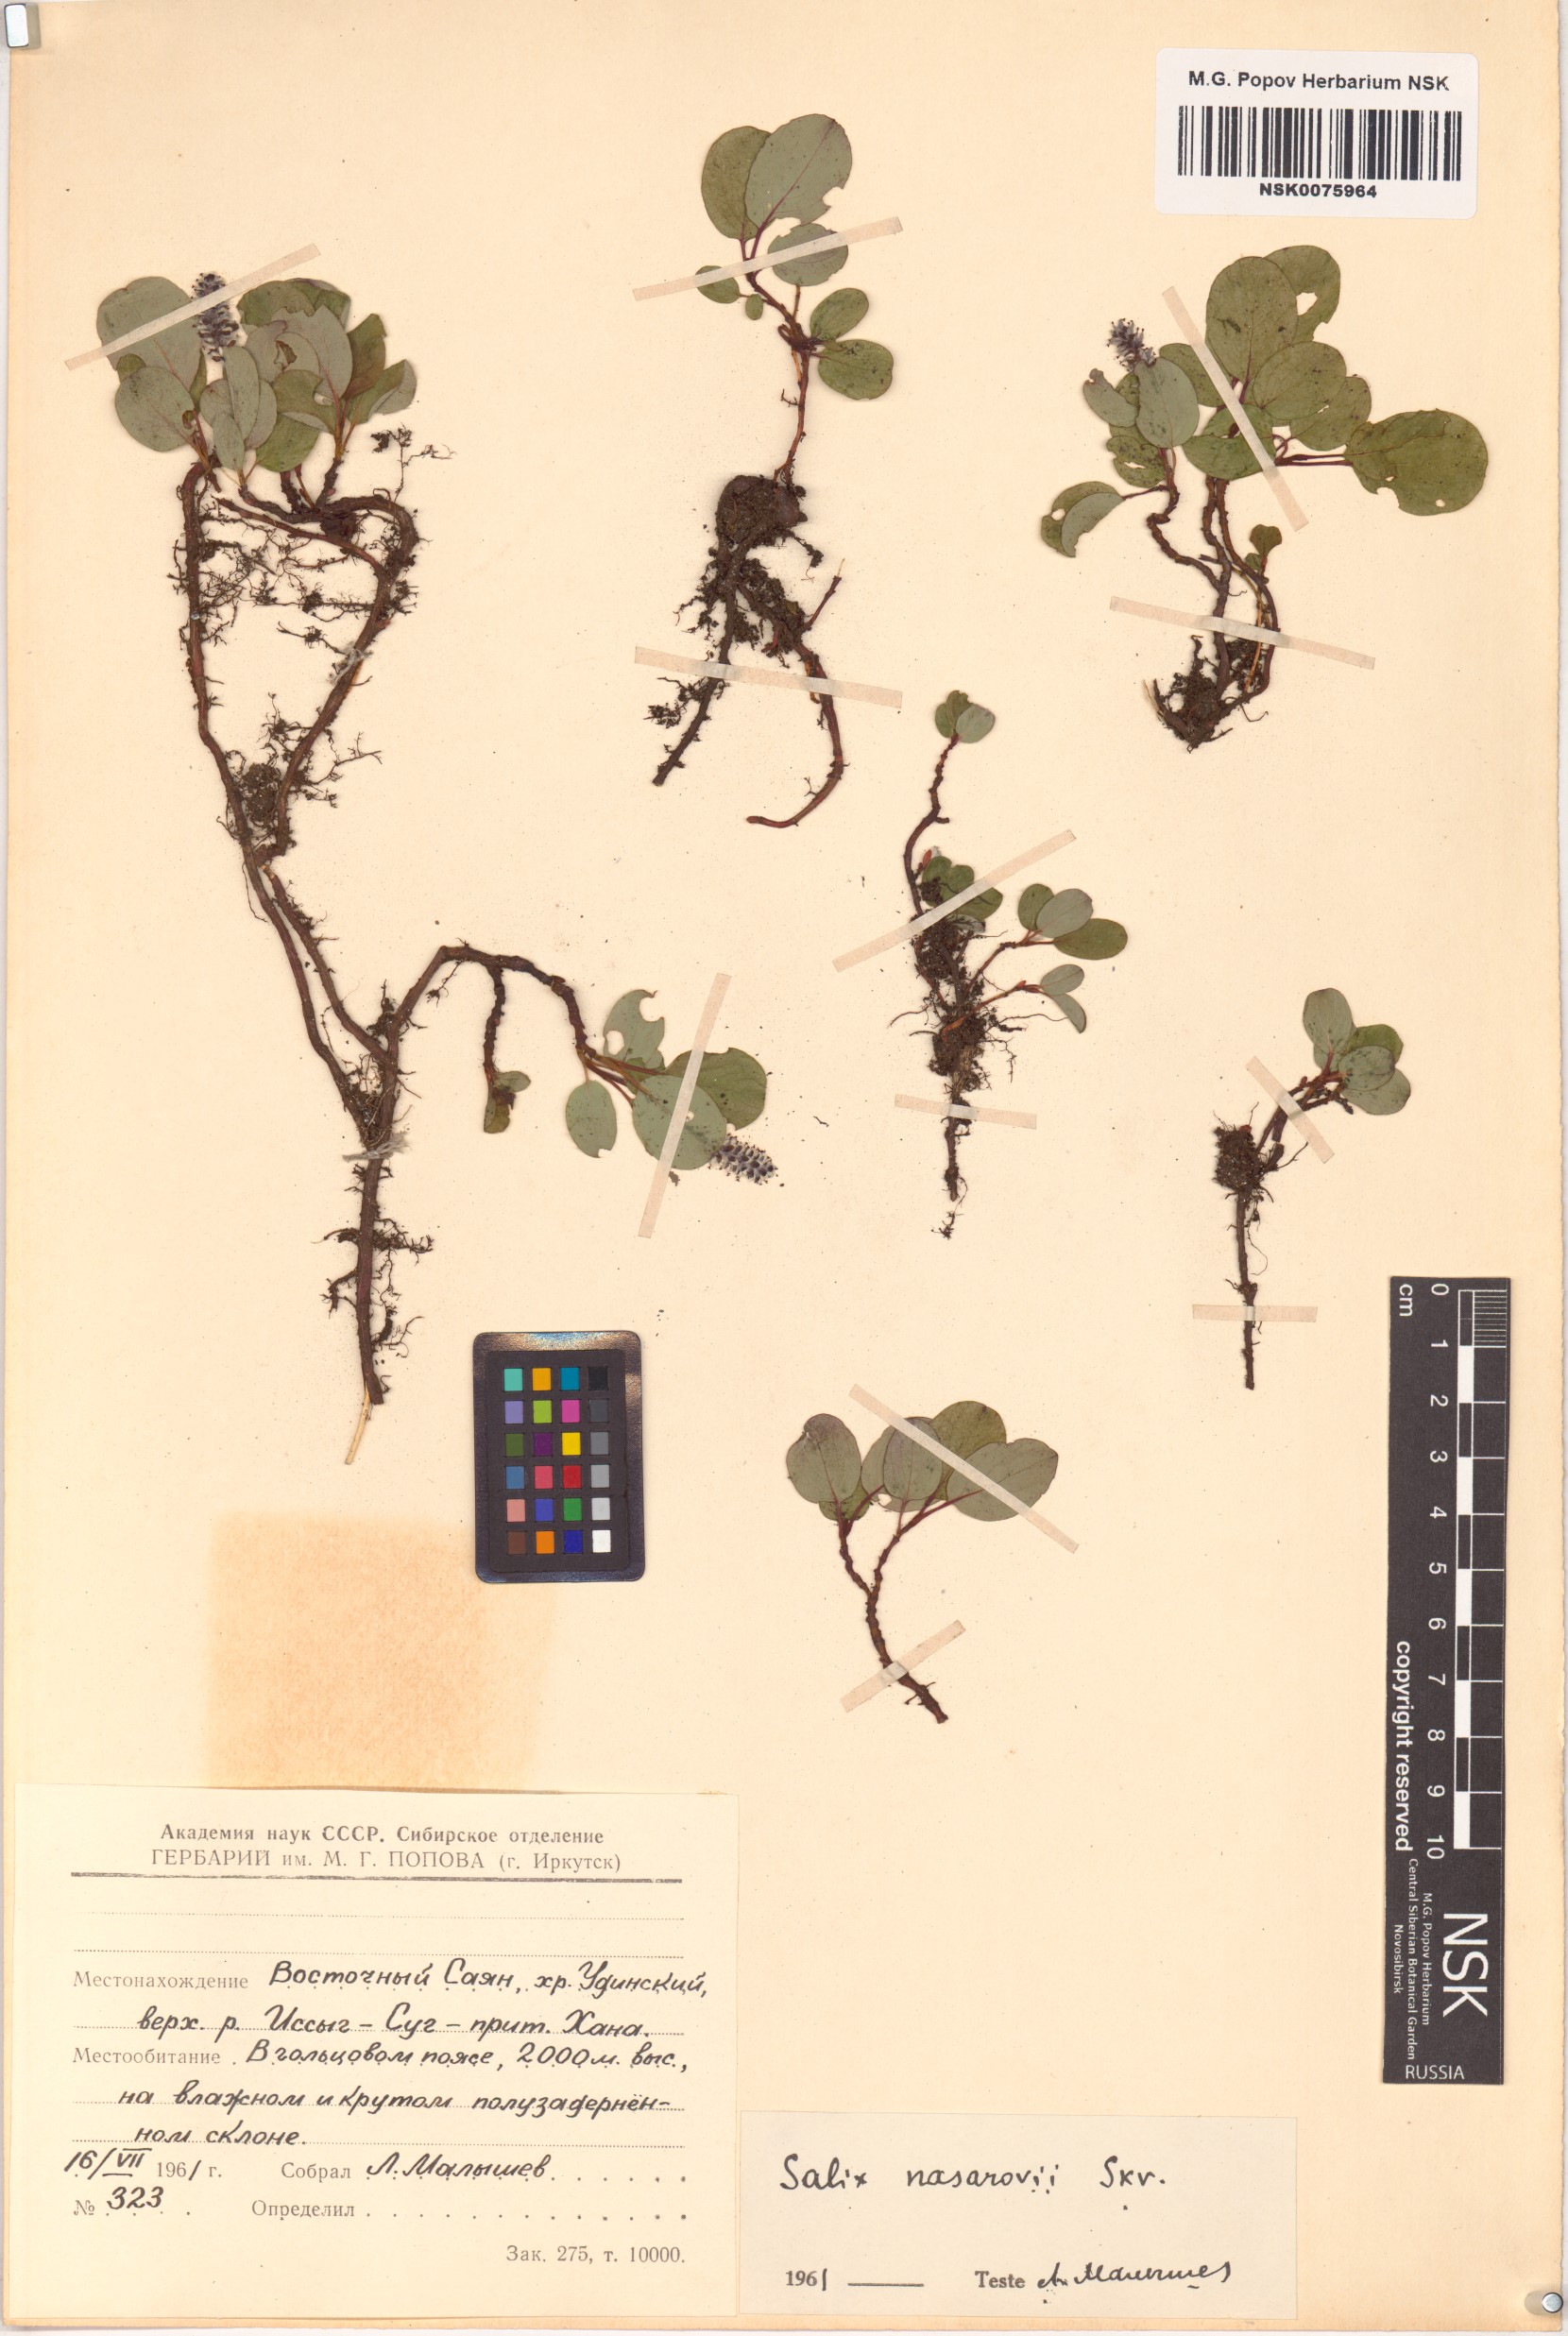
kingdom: Plantae
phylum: Tracheophyta
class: Magnoliopsida
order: Malpighiales
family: Salicaceae
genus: Salix
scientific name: Salix nasarovii
